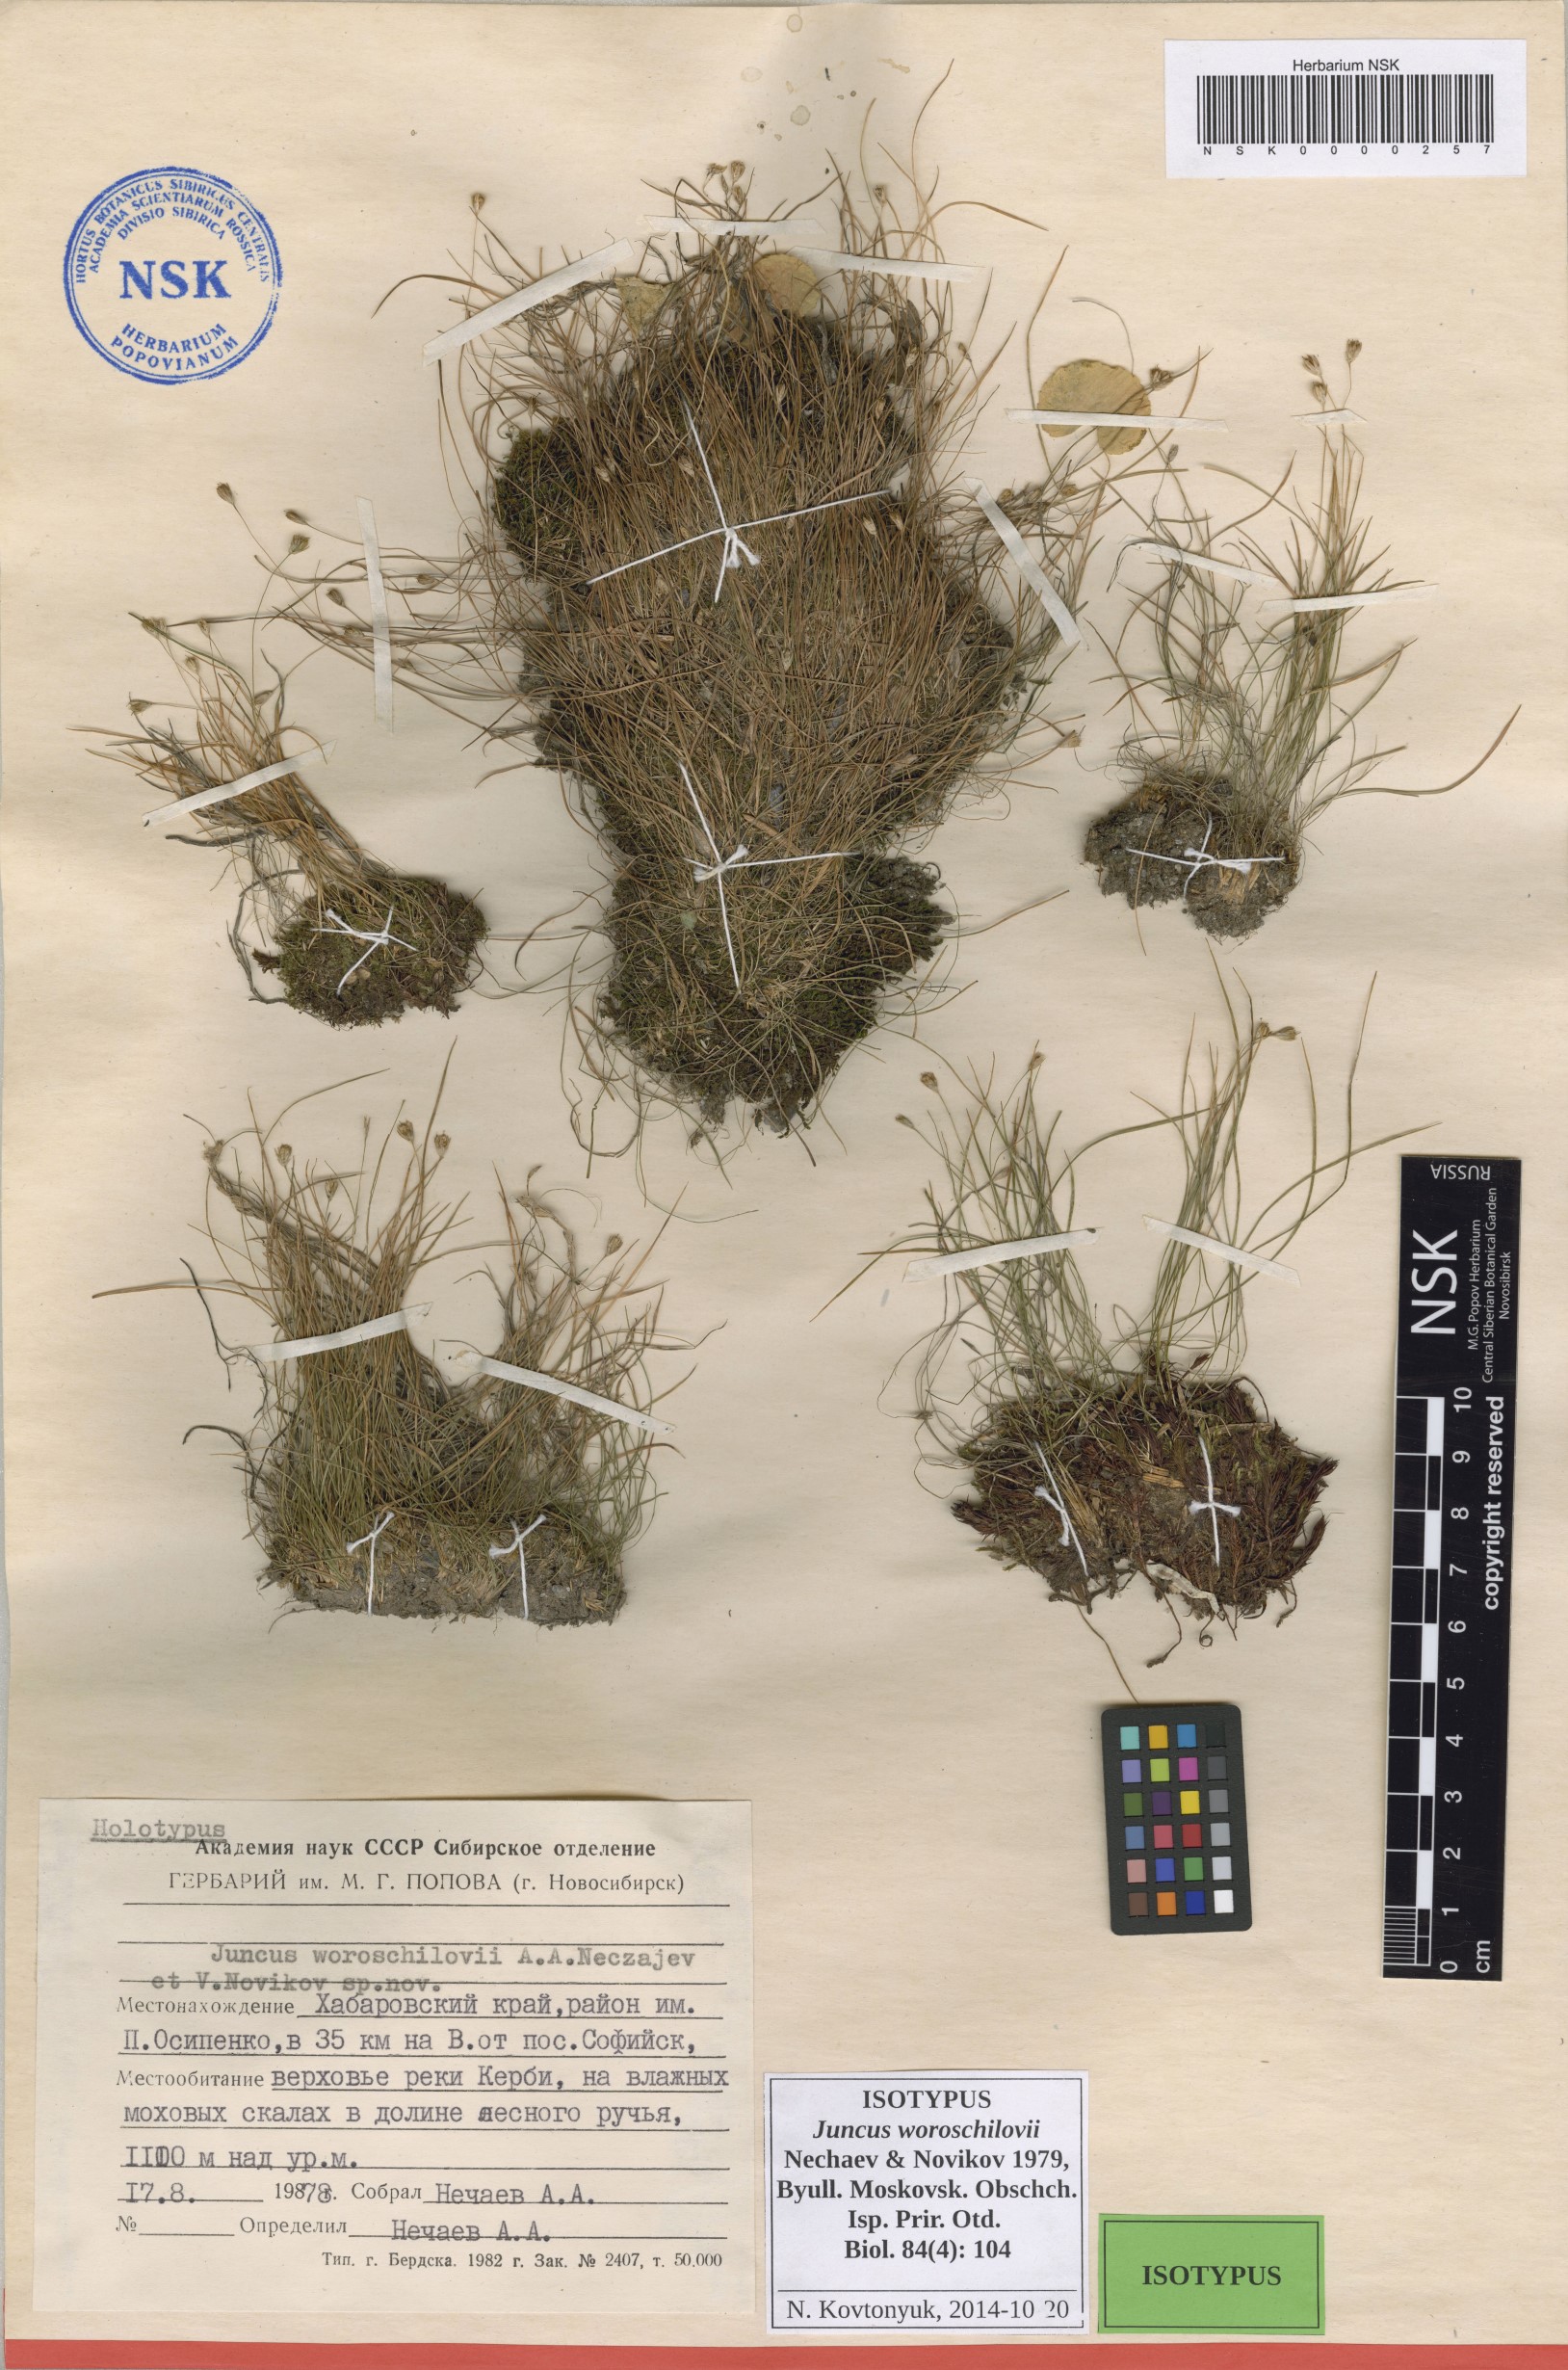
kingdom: Plantae
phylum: Tracheophyta
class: Liliopsida
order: Poales
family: Juncaceae
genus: Juncus
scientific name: Juncus potaninii
